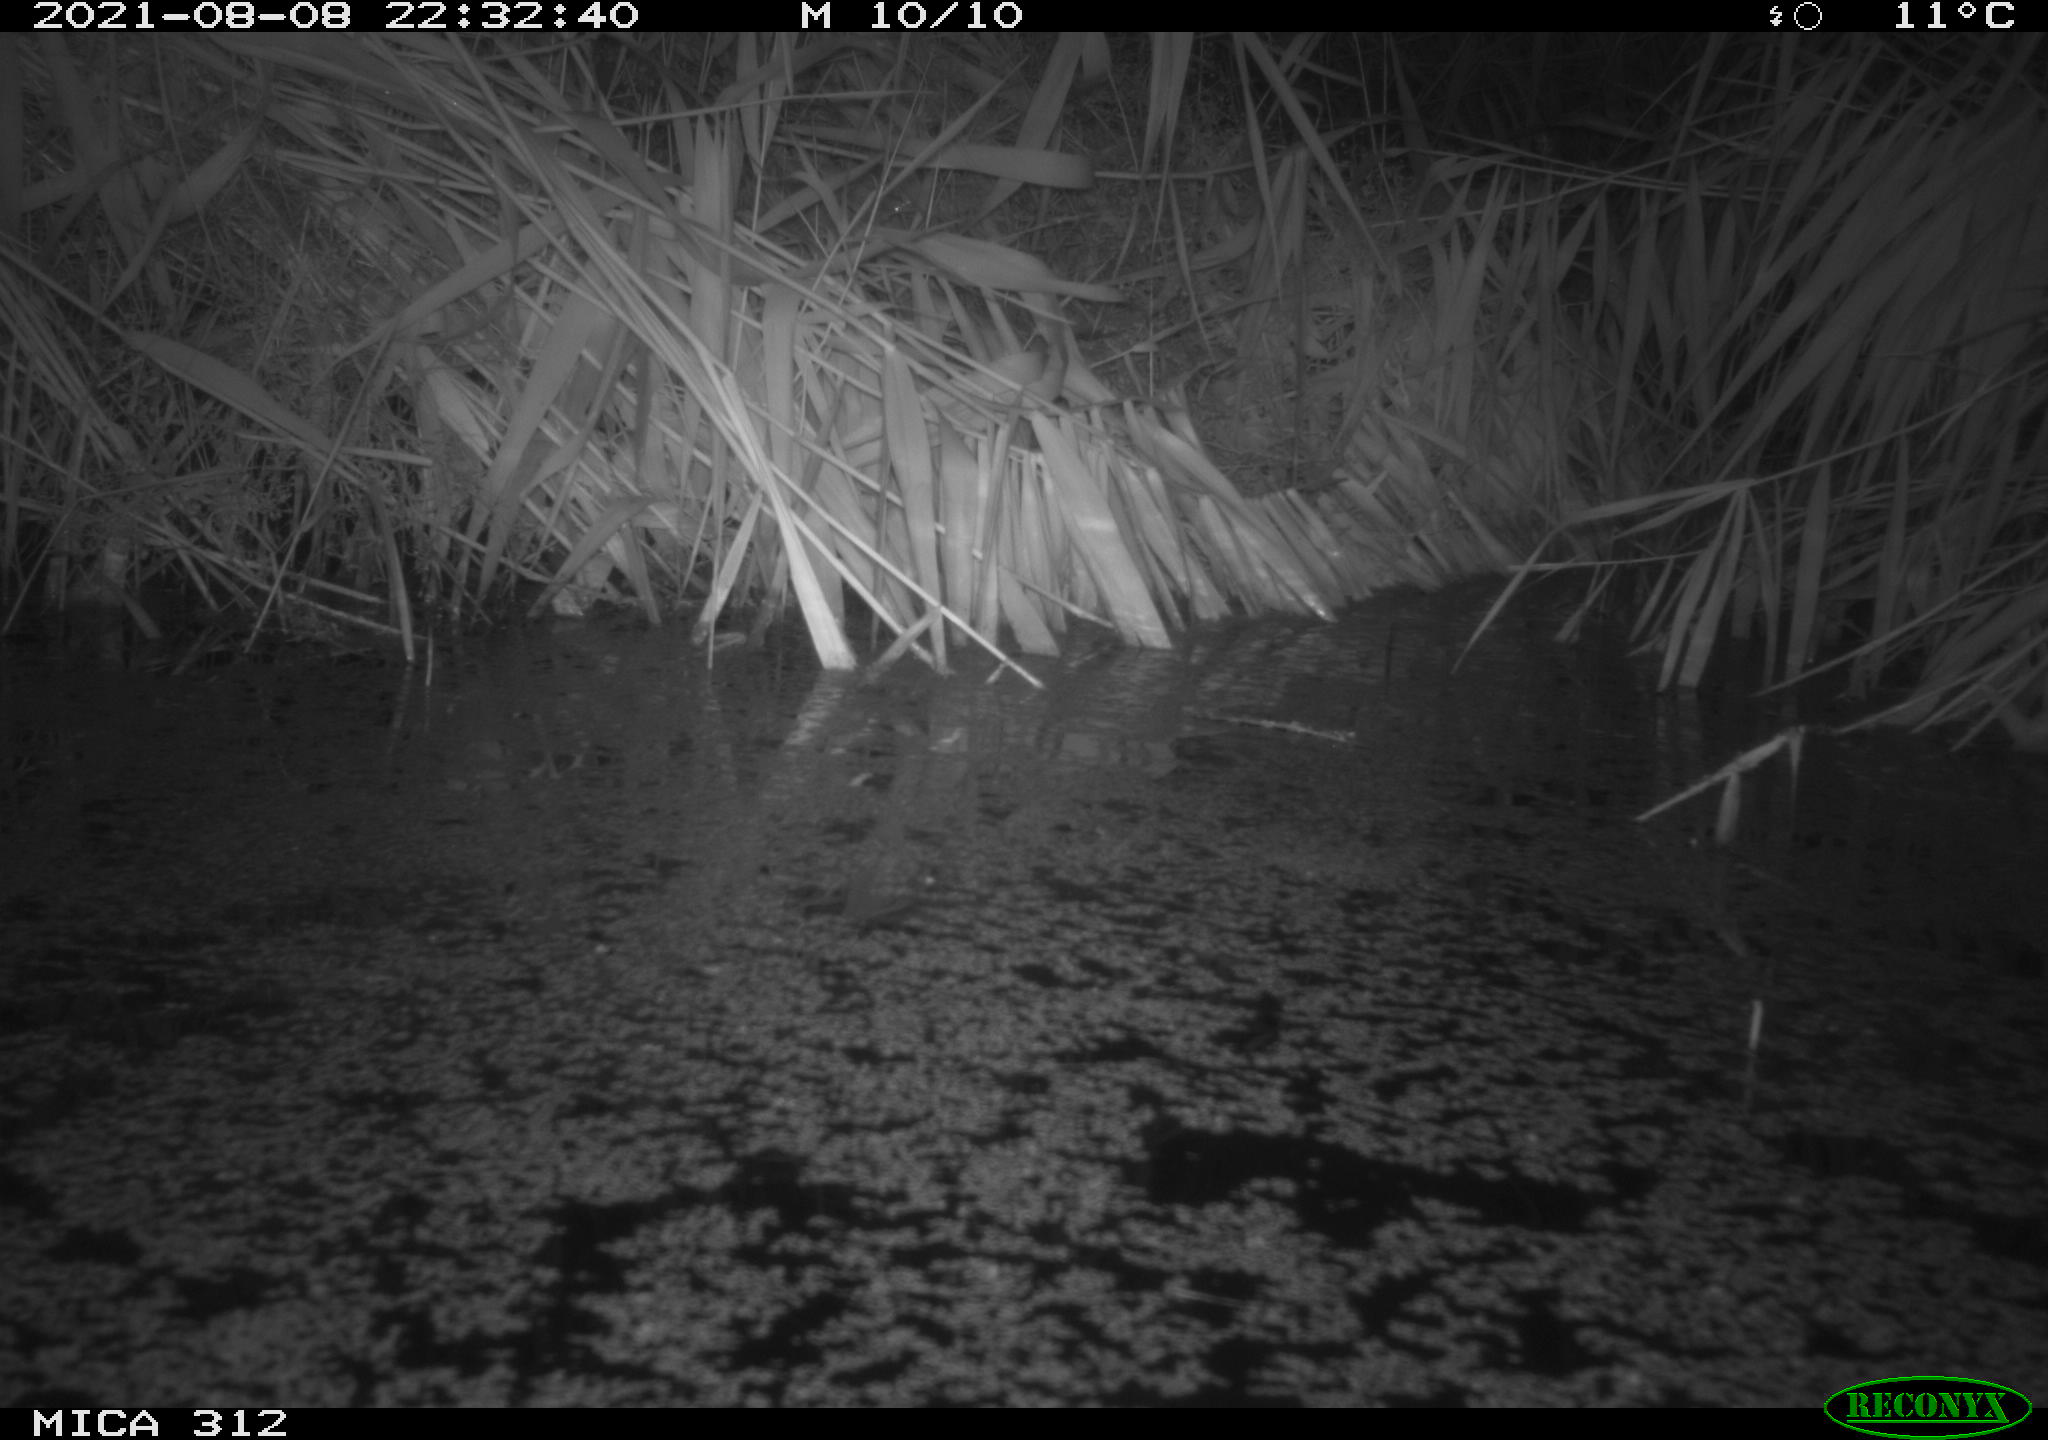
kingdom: Animalia
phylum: Chordata
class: Mammalia
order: Rodentia
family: Muridae
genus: Rattus
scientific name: Rattus norvegicus
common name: Brown rat
